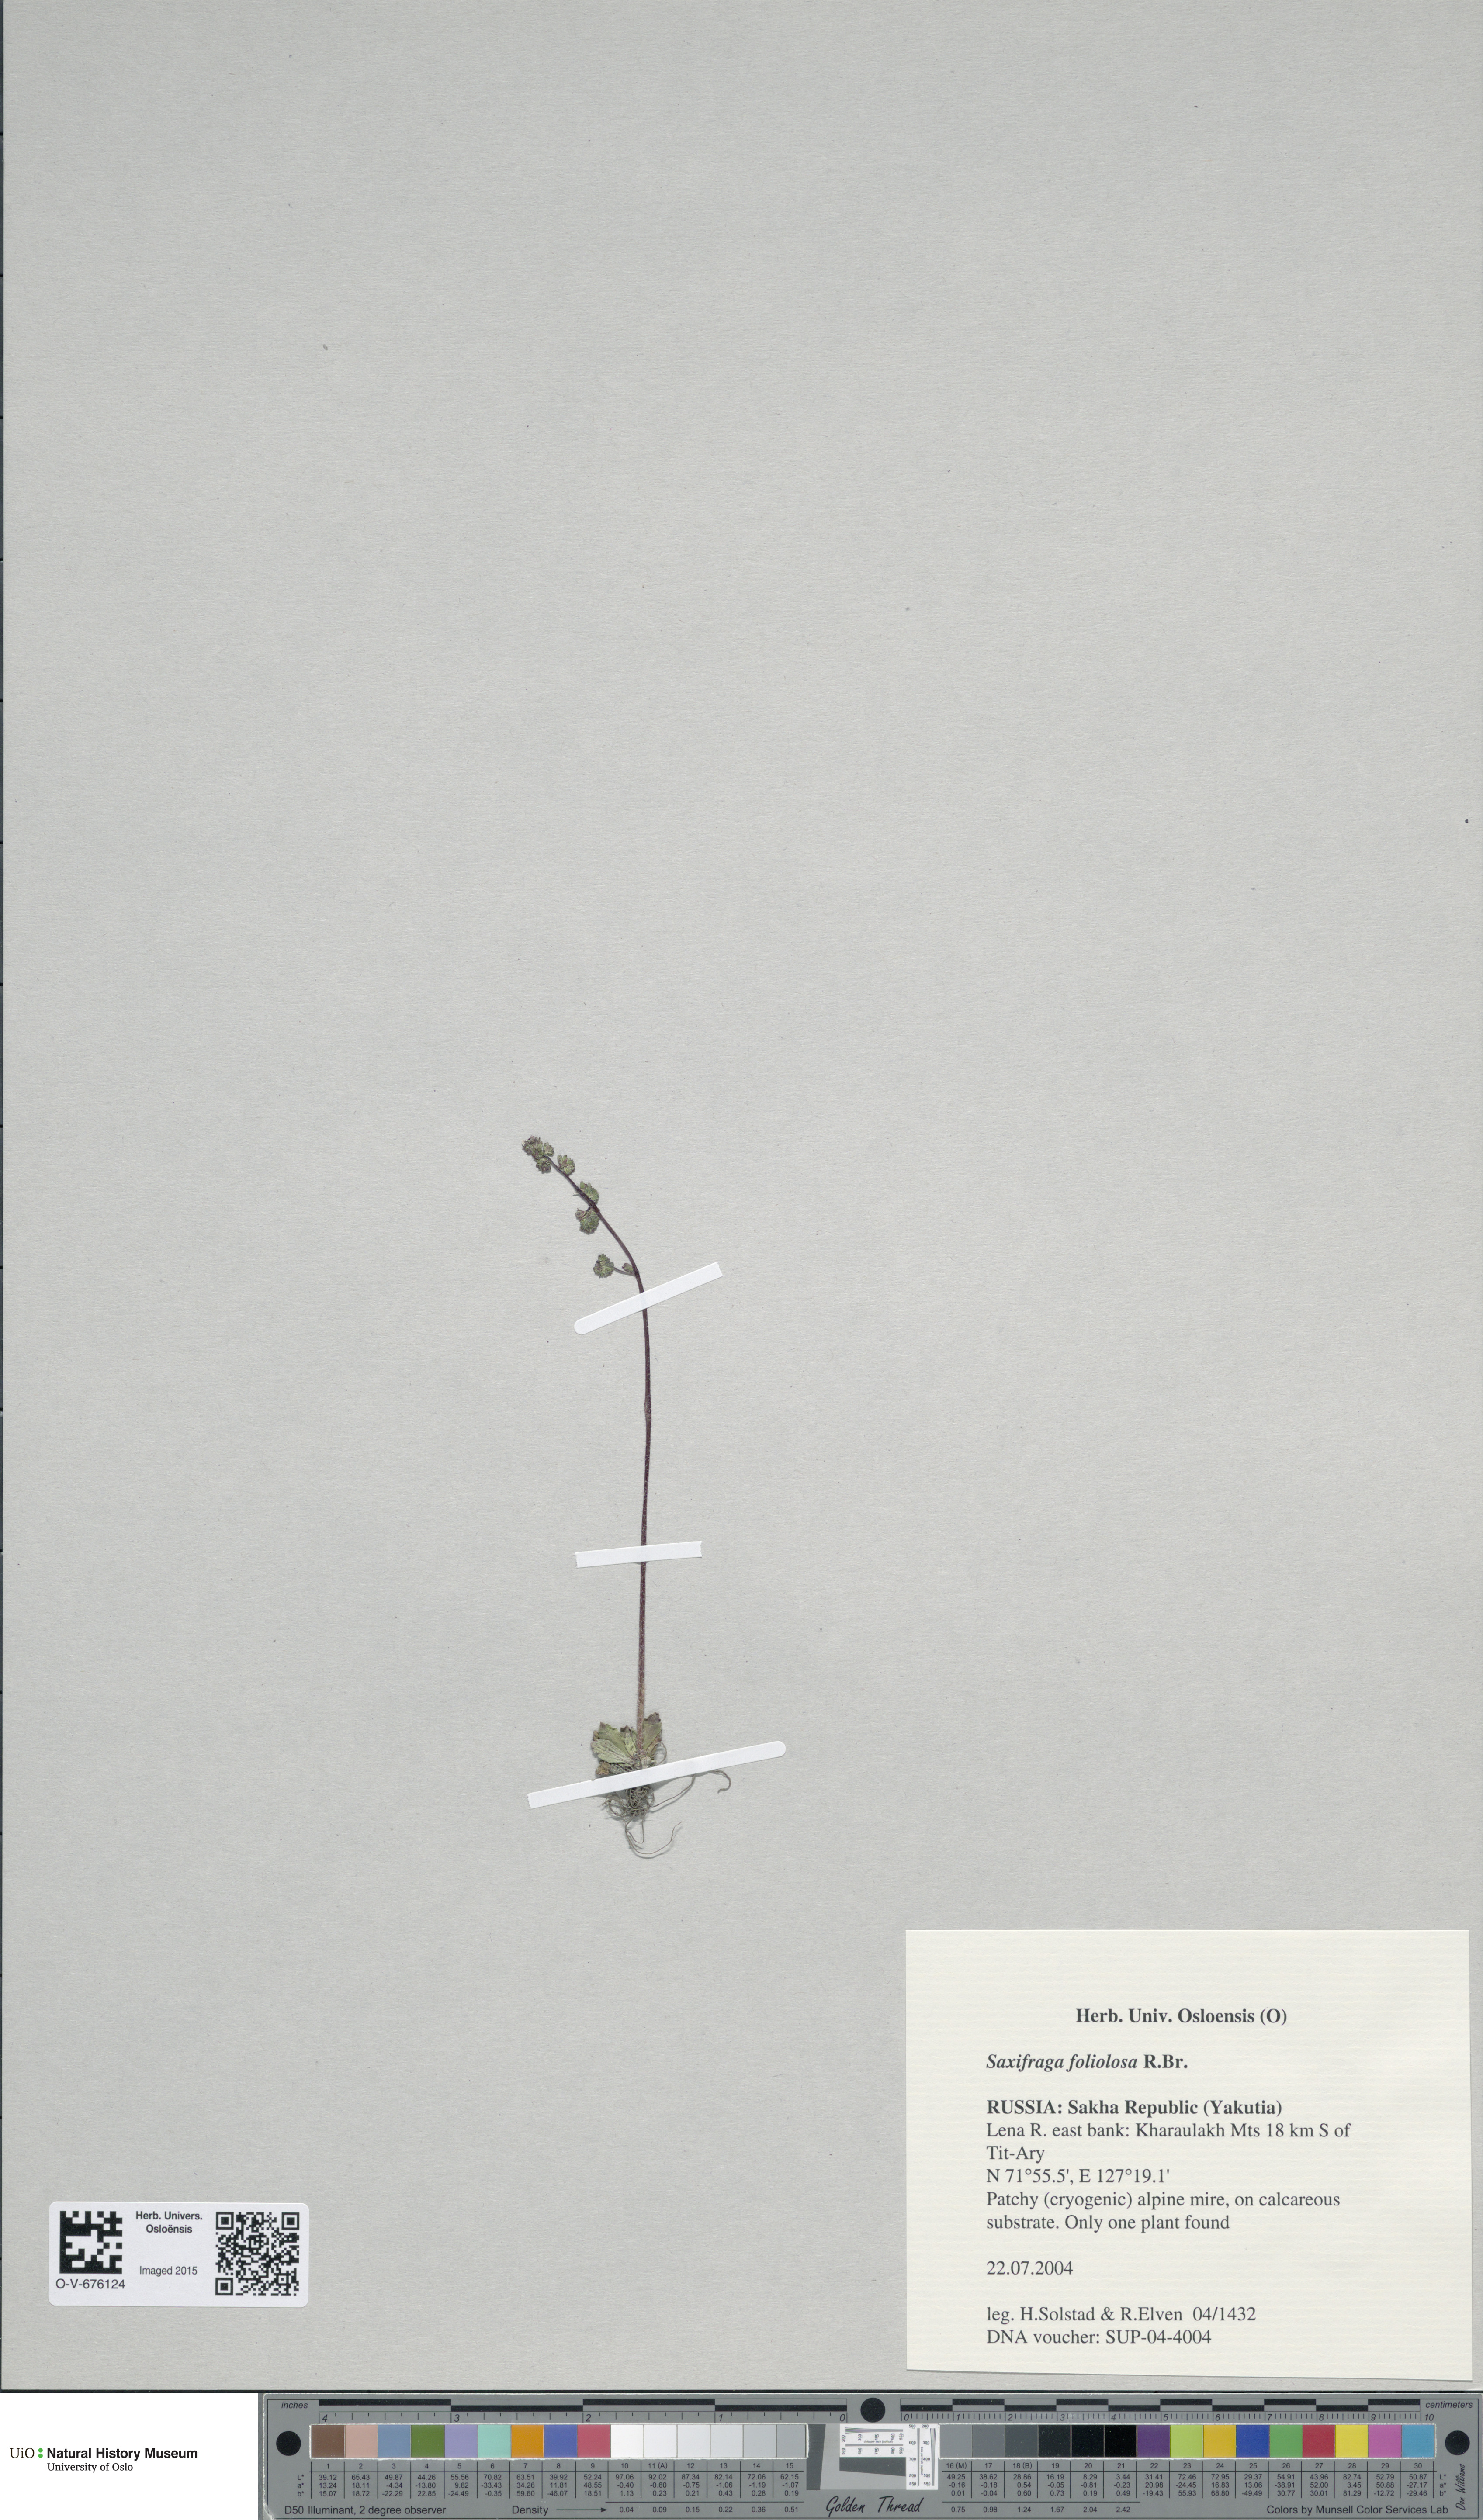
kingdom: Plantae
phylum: Tracheophyta
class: Magnoliopsida
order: Saxifragales
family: Saxifragaceae
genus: Micranthes
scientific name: Micranthes foliolosa
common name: Leafystem saxifrage
